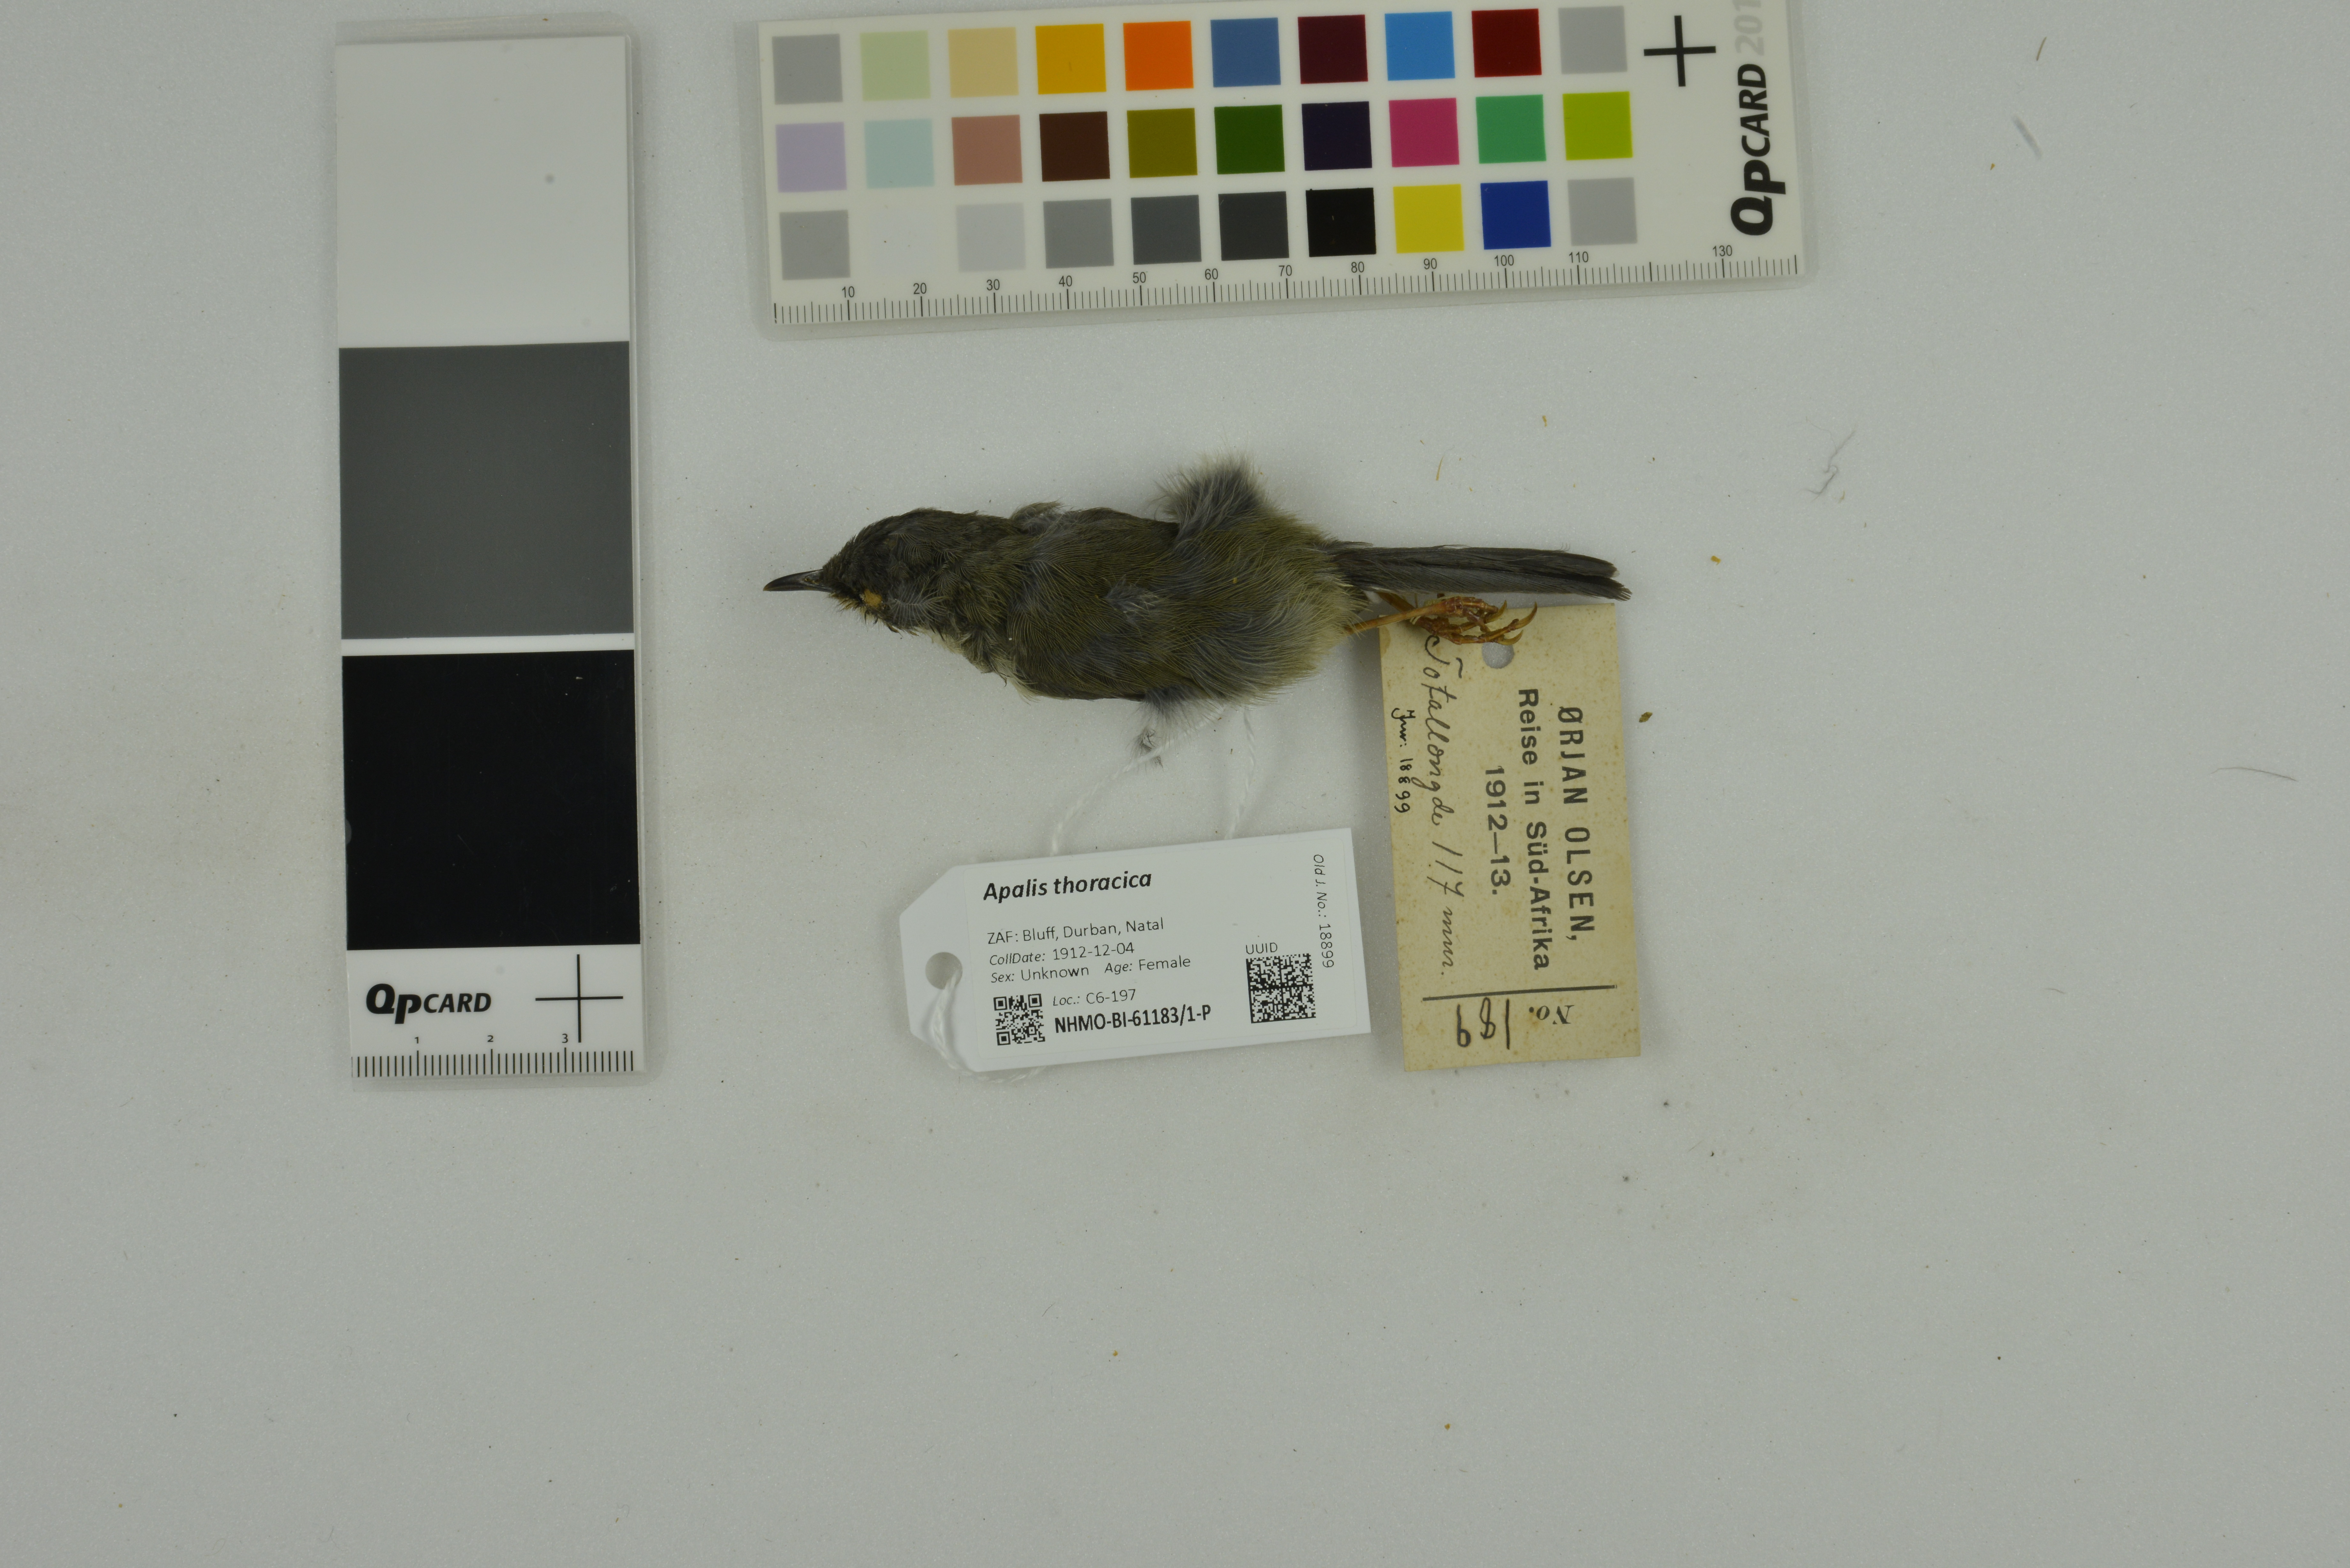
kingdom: Animalia
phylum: Chordata
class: Aves
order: Passeriformes
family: Cisticolidae
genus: Apalis
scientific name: Apalis thoracica
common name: Bar-throated apalis
